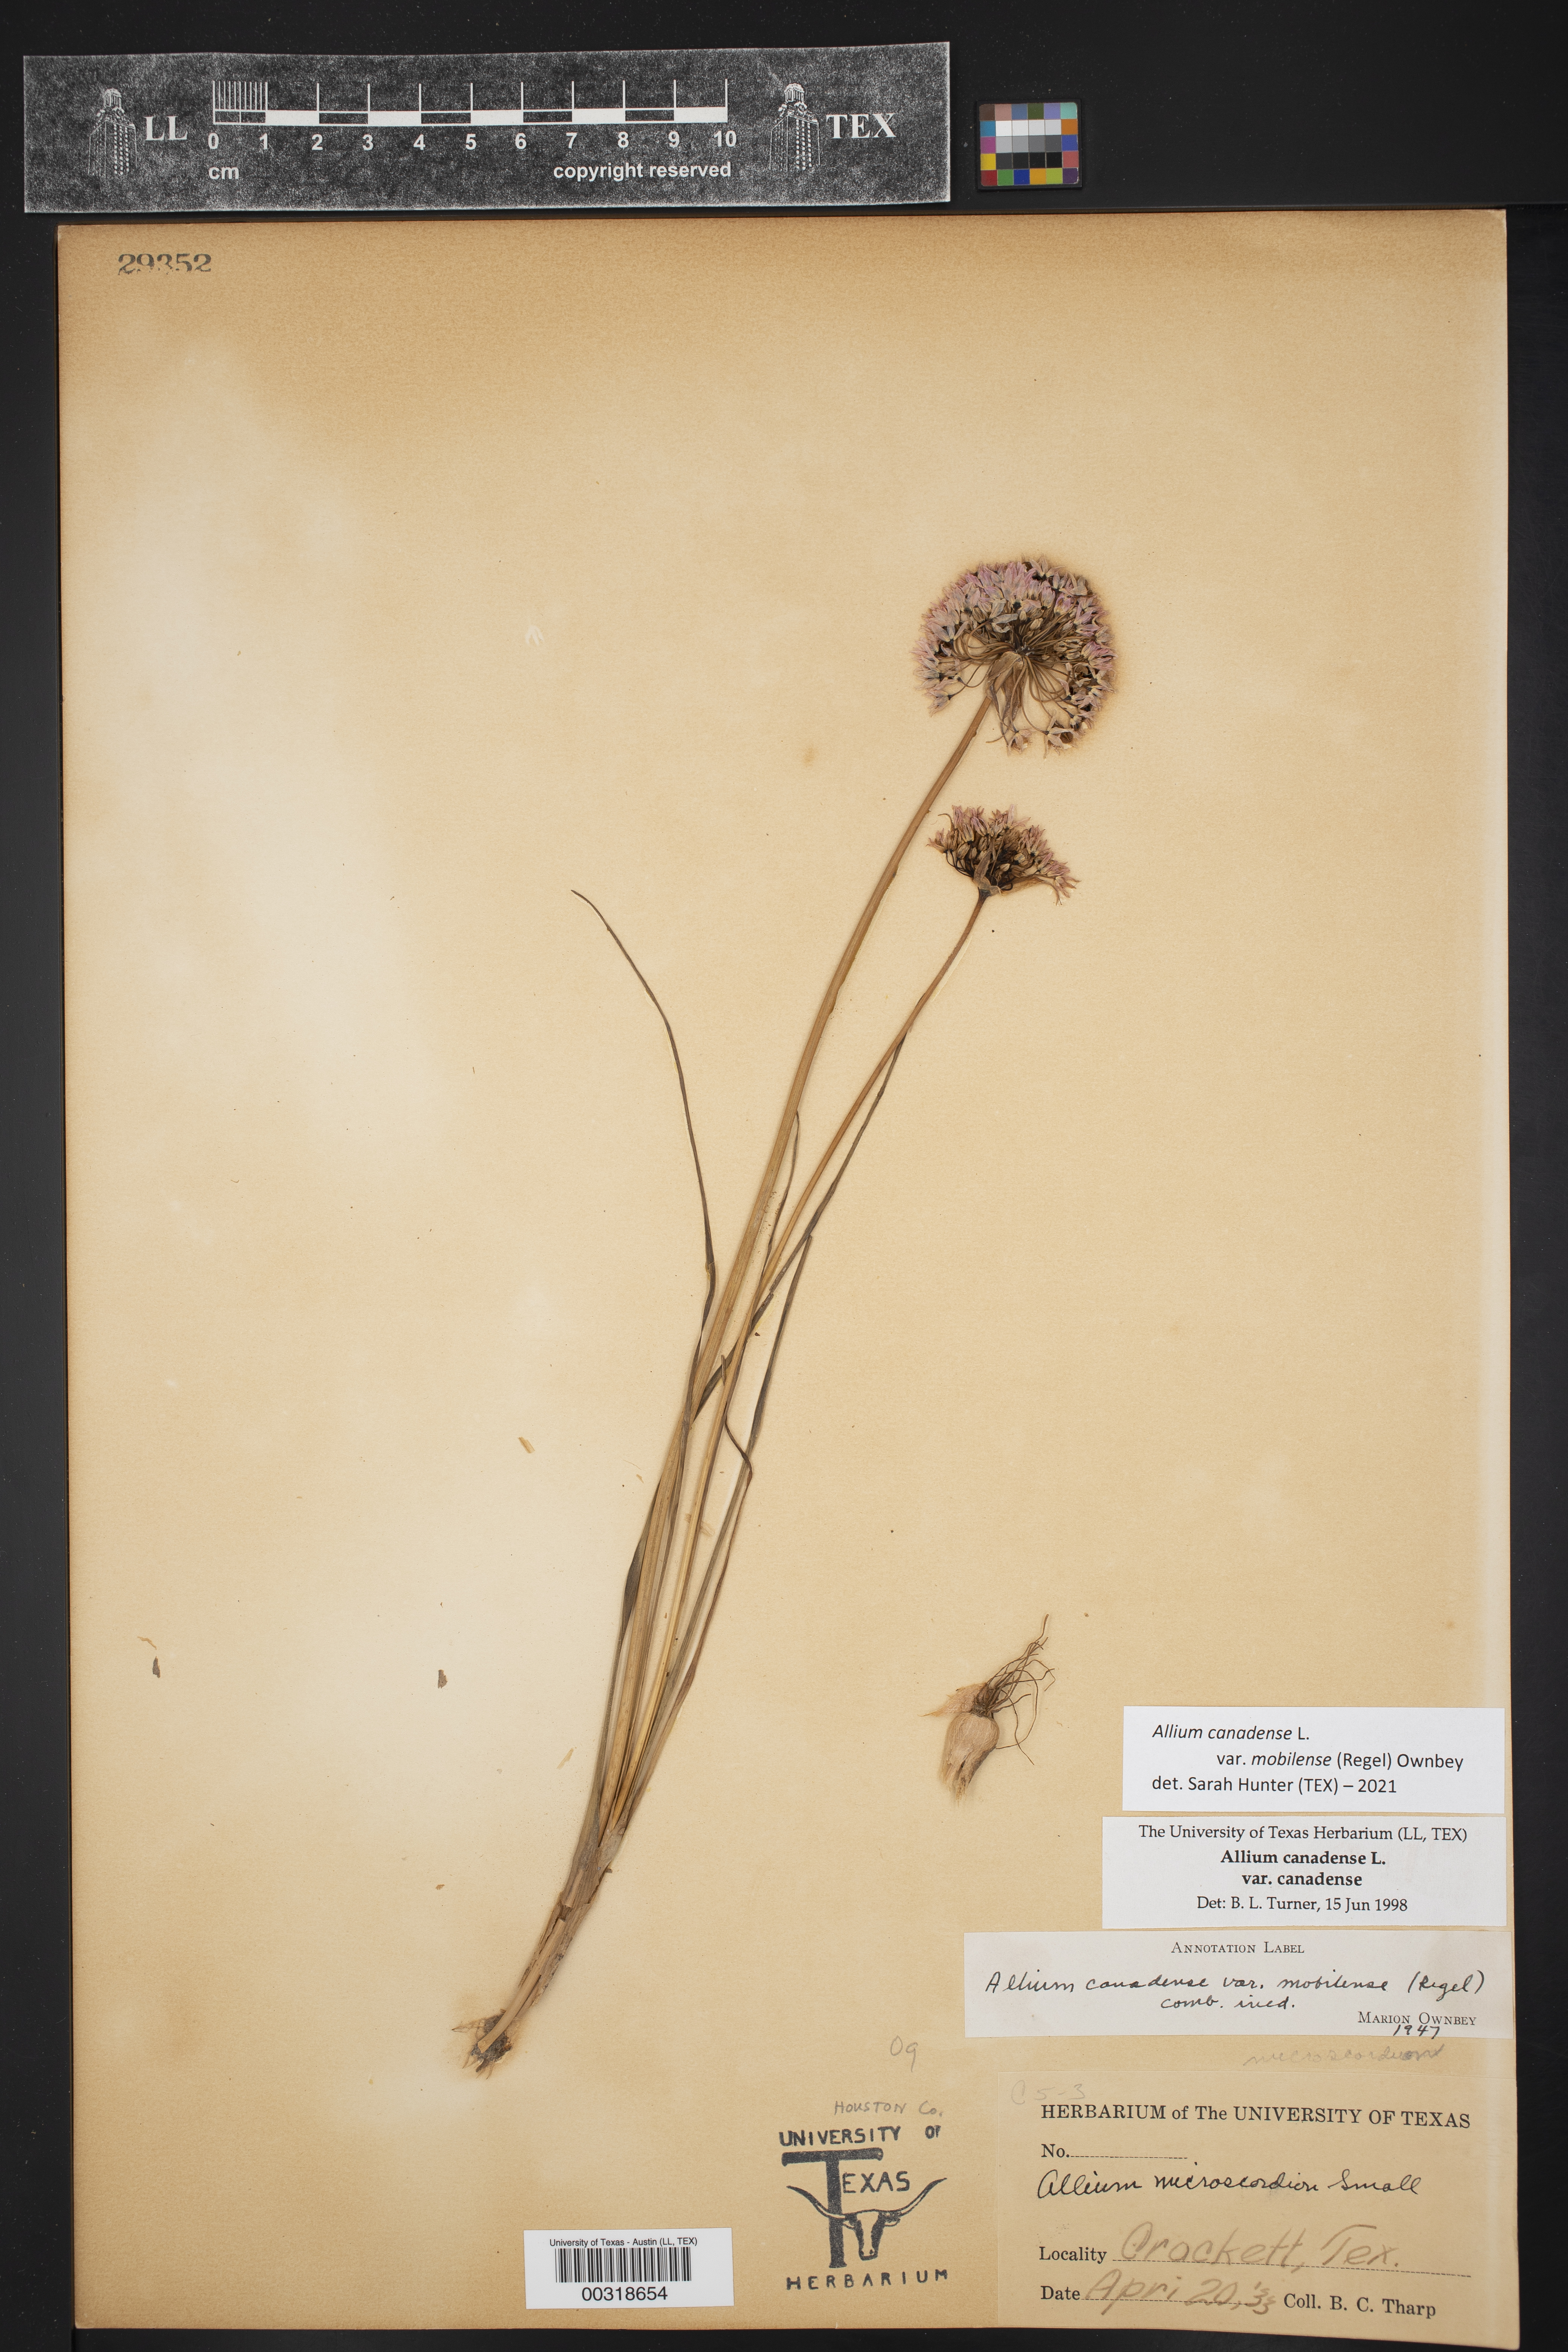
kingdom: Plantae
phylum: Tracheophyta
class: Liliopsida
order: Asparagales
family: Amaryllidaceae
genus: Allium
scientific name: Allium canadense
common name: Meadow garlic
